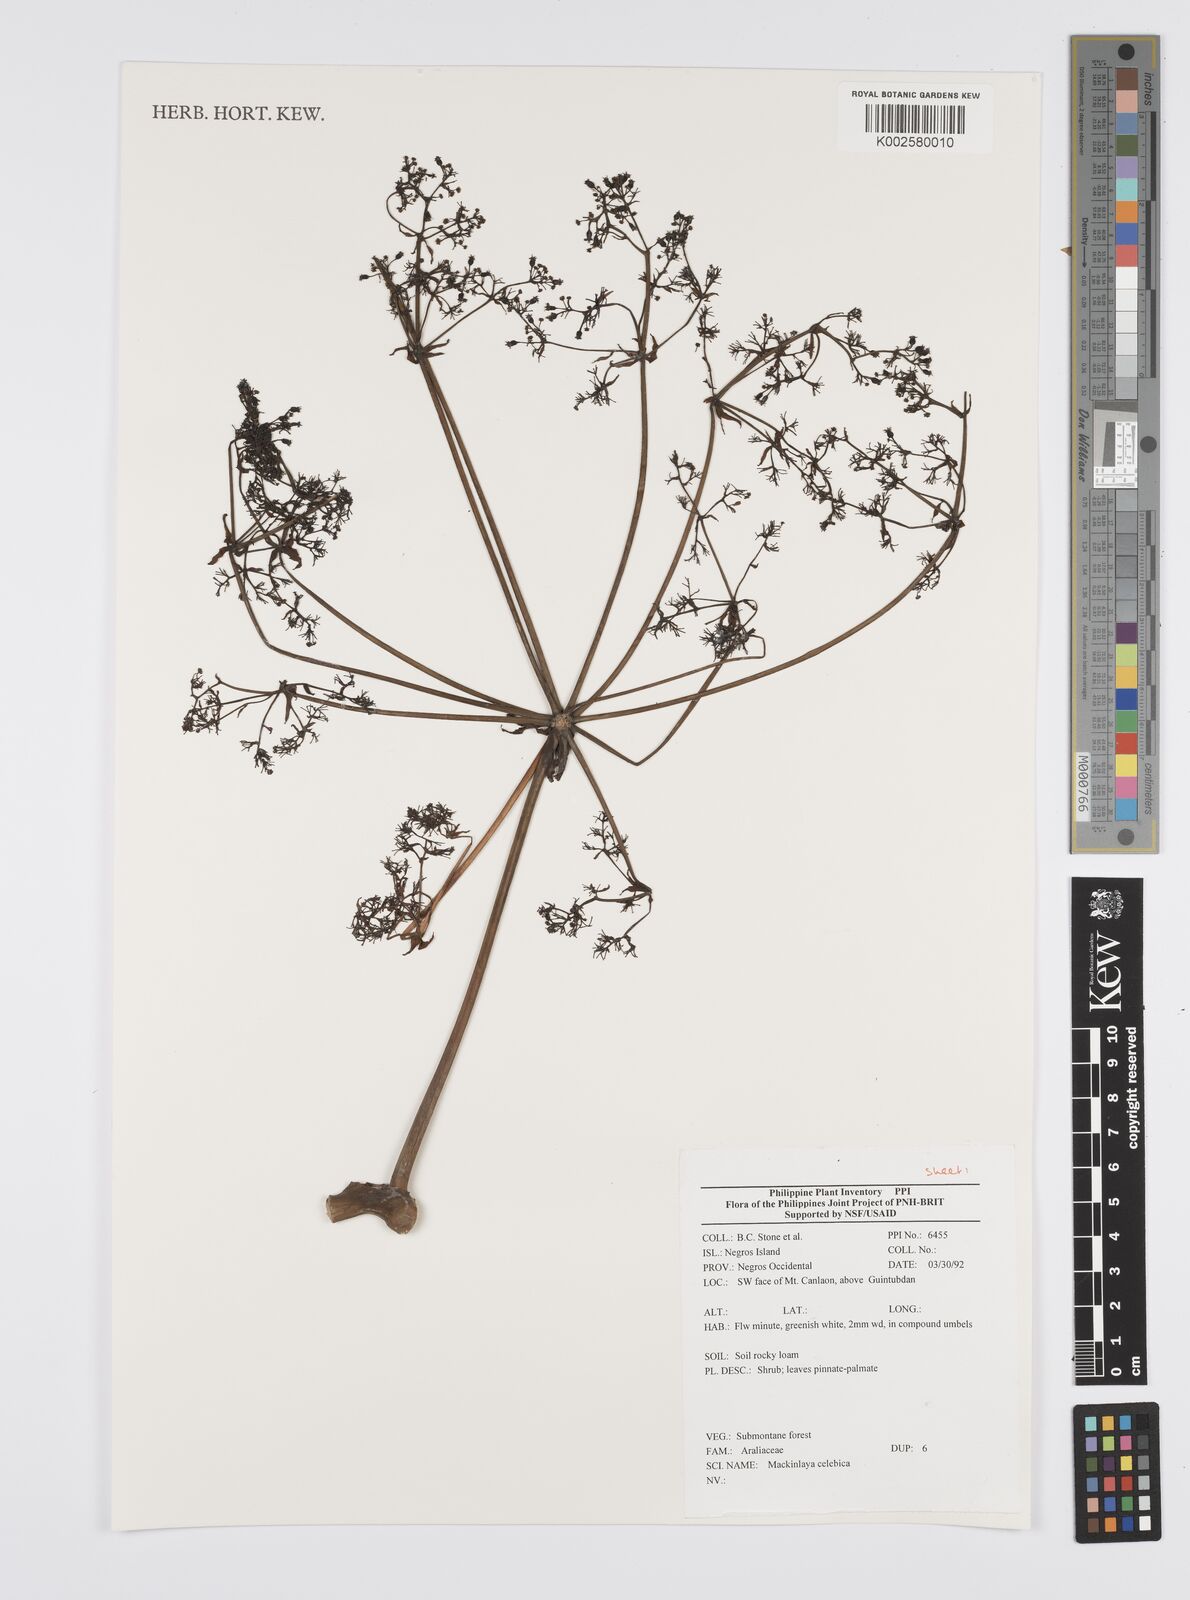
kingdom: Plantae
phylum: Tracheophyta
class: Magnoliopsida
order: Apiales
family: Apiaceae
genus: Mackinlaya
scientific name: Mackinlaya celebica
